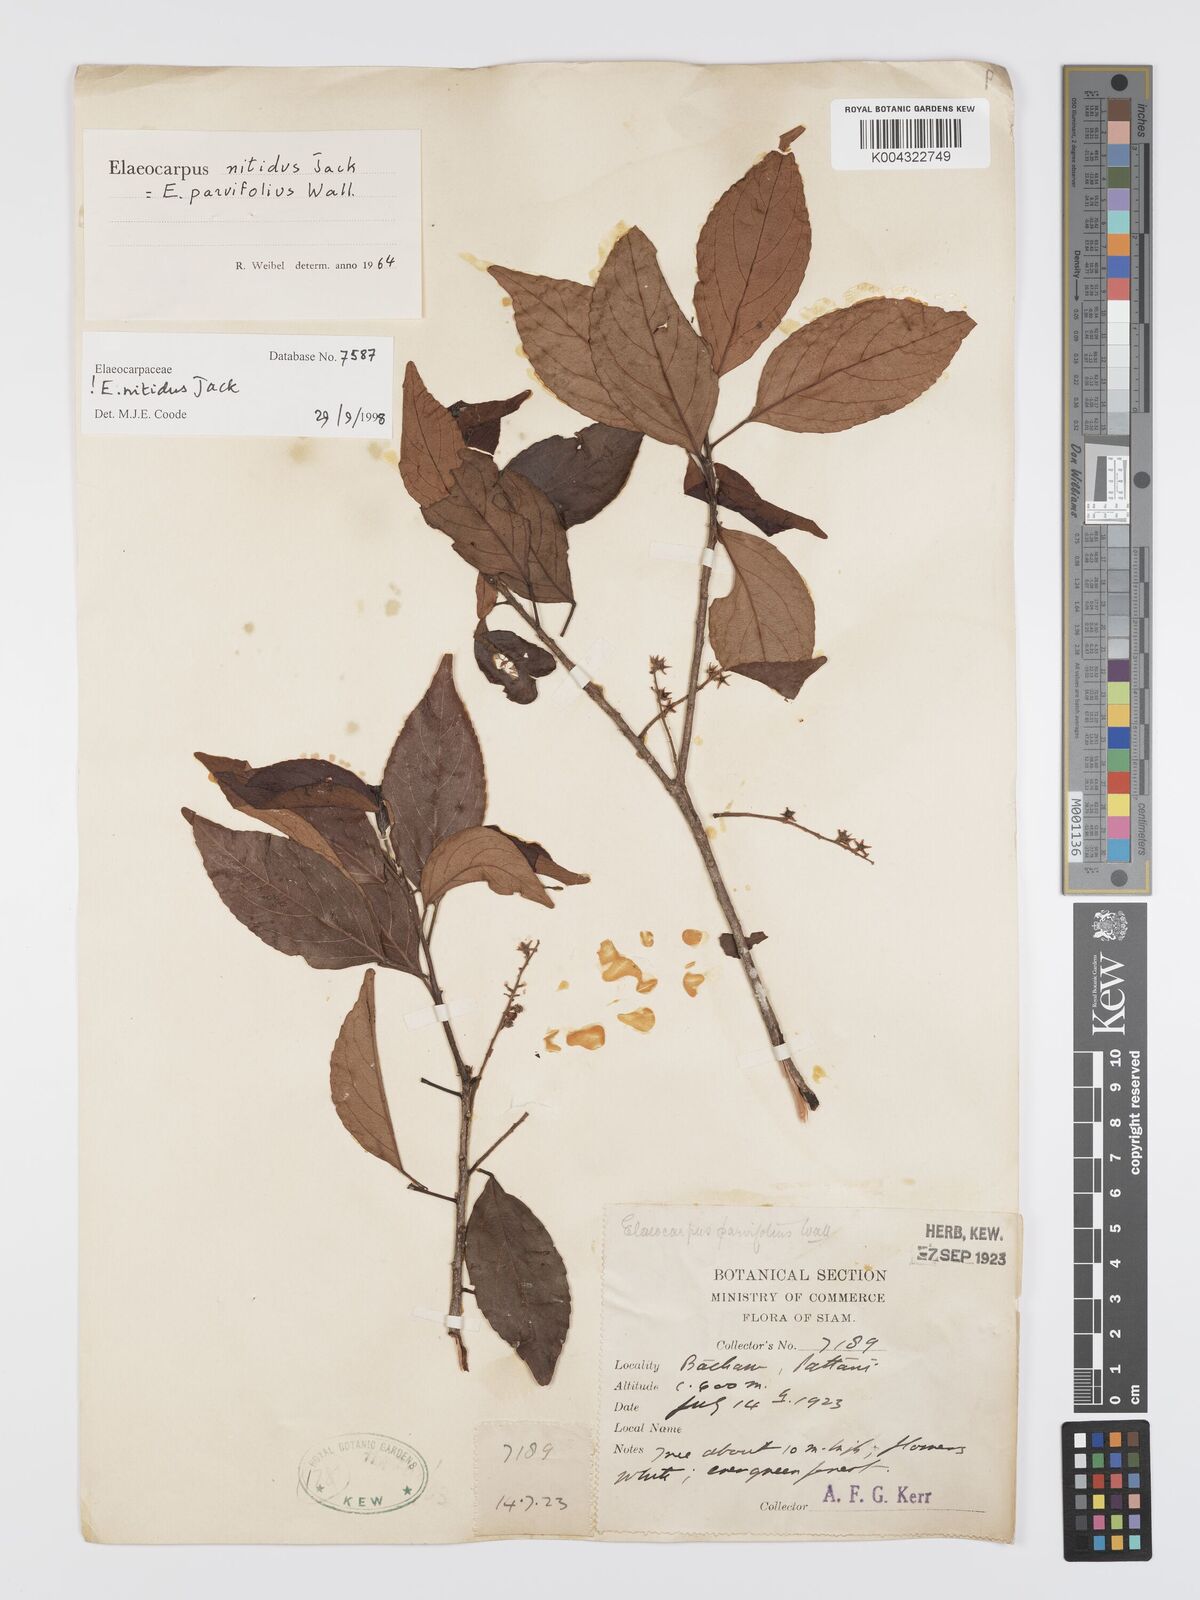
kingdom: Plantae
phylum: Tracheophyta
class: Magnoliopsida
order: Oxalidales
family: Elaeocarpaceae
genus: Elaeocarpus
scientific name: Elaeocarpus nitidus
